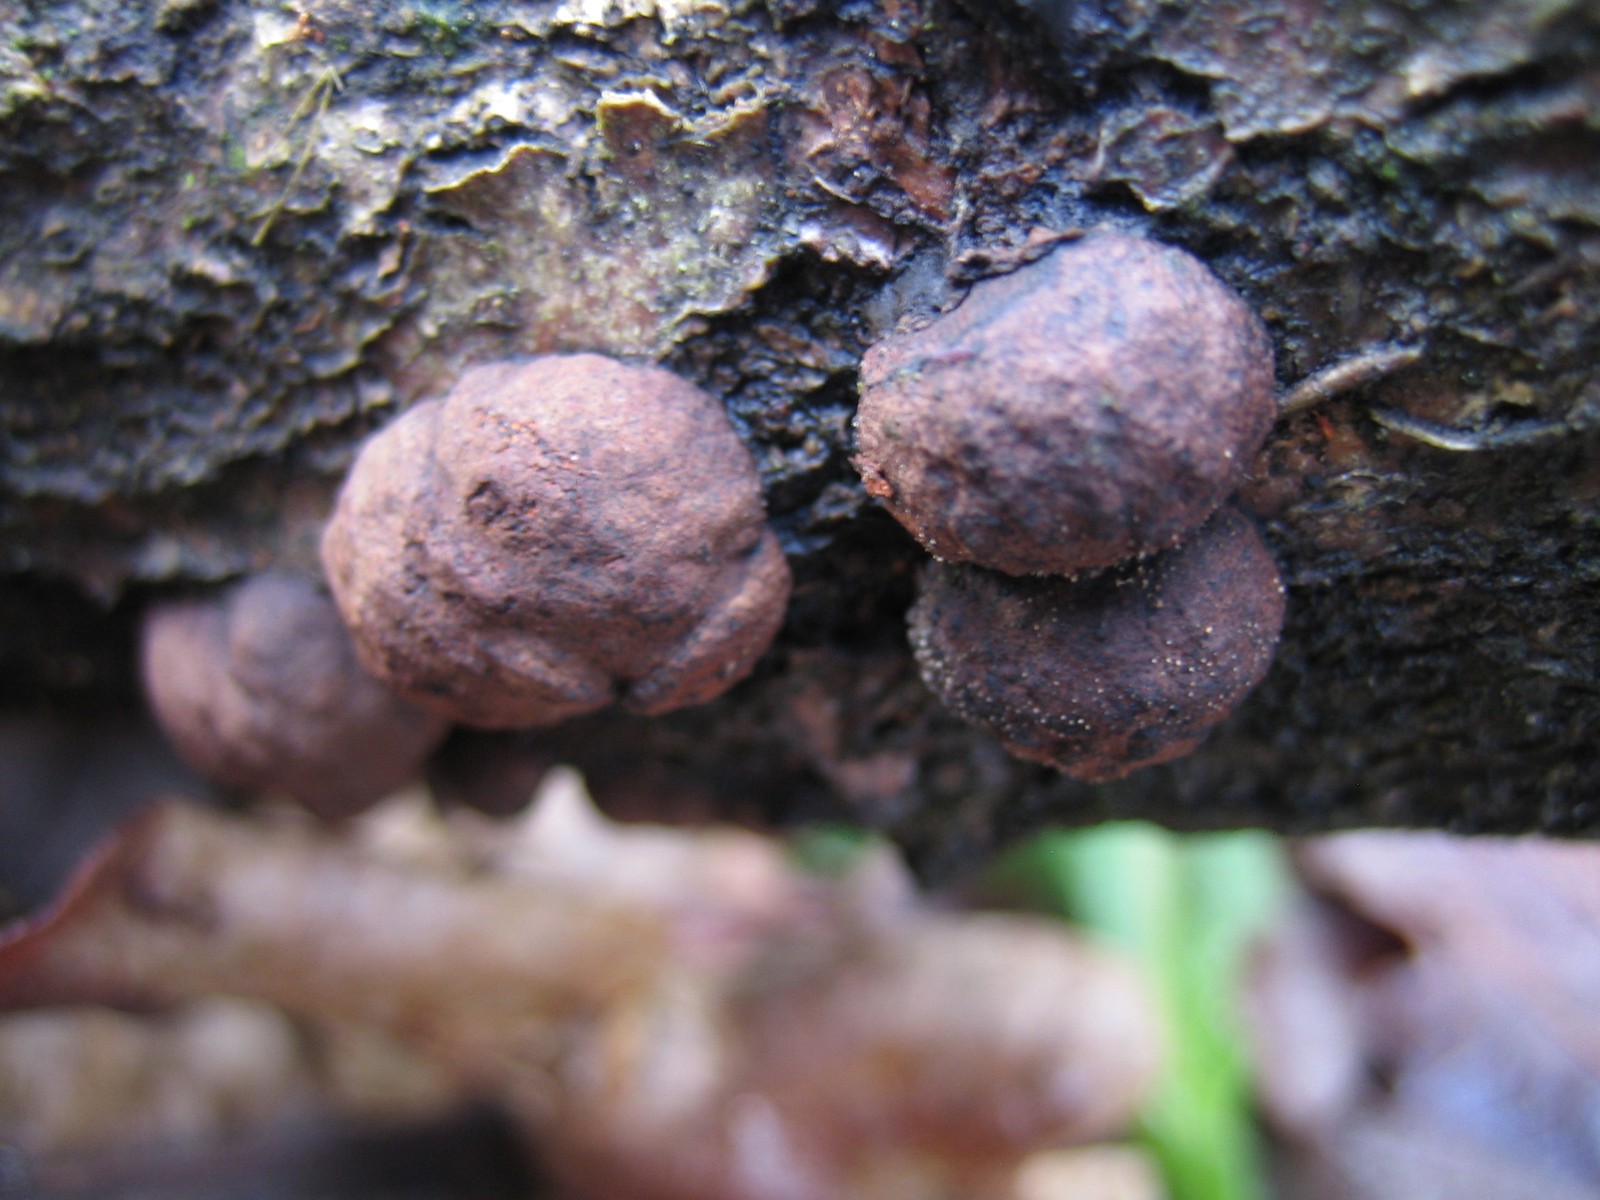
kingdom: Fungi
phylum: Ascomycota
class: Sordariomycetes
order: Xylariales
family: Hypoxylaceae
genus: Hypoxylon
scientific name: Hypoxylon howeanum
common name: halvkugleformet kulbær
